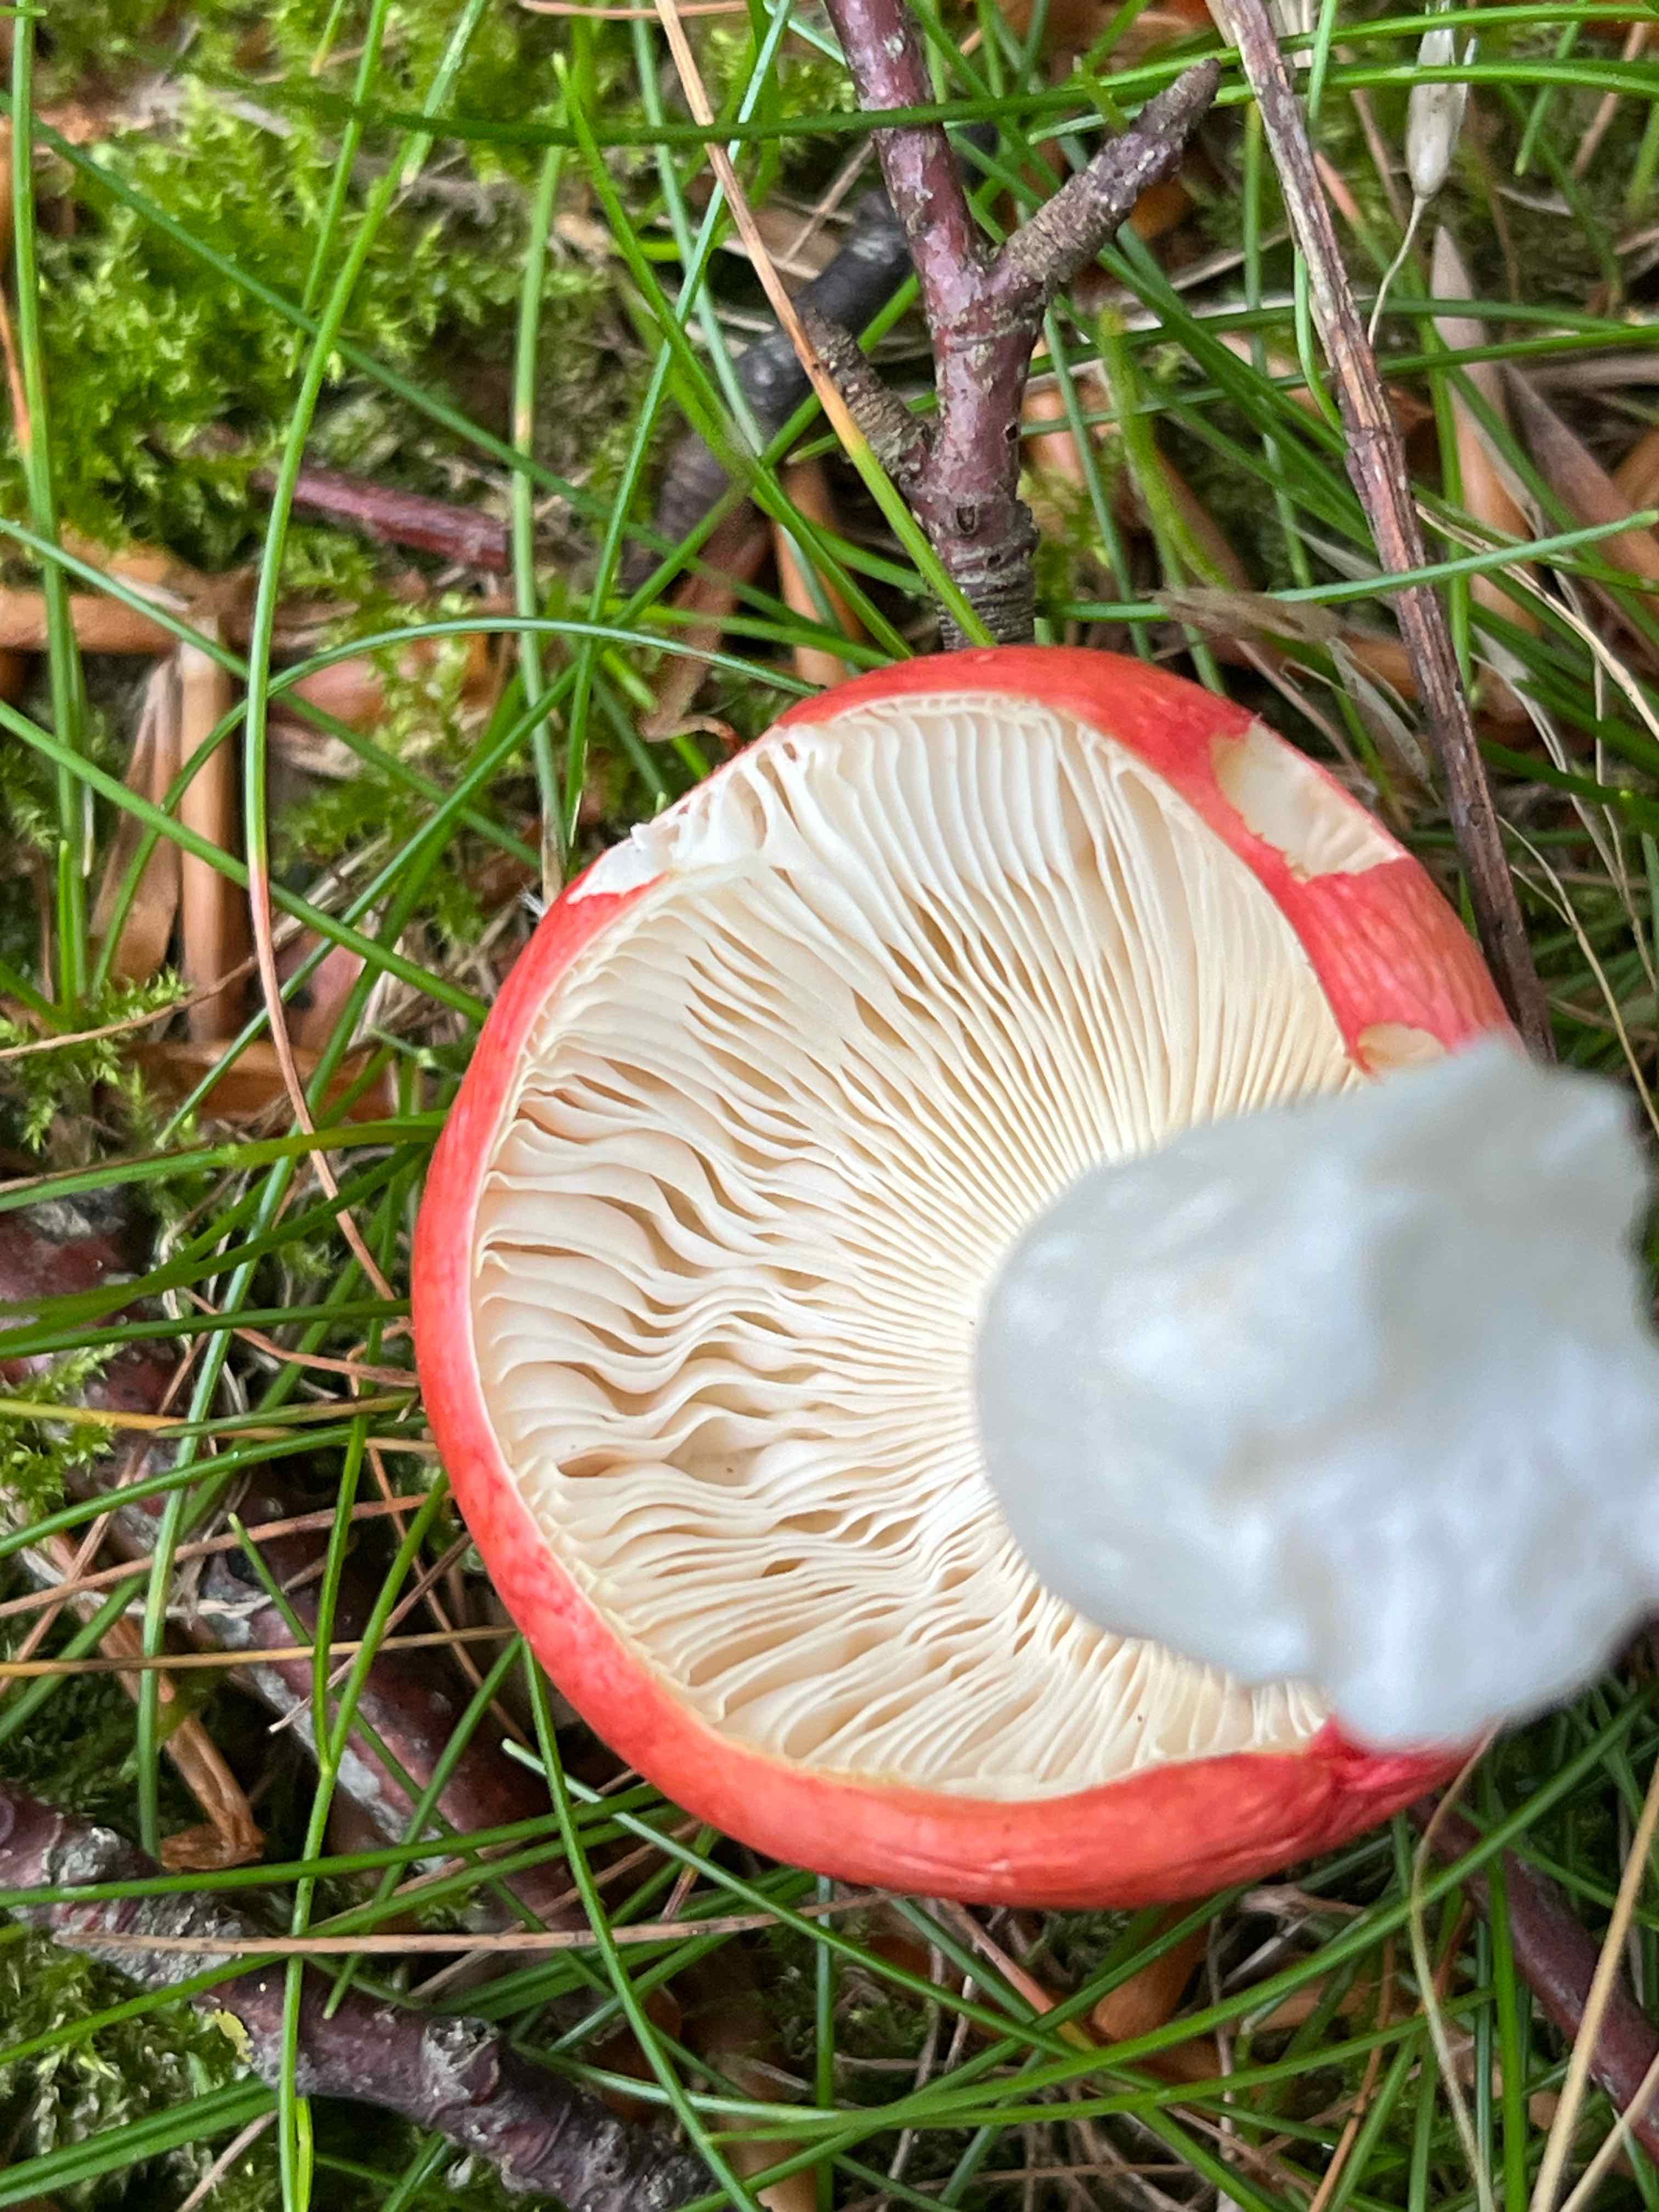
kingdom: Fungi
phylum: Basidiomycota
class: Agaricomycetes
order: Russulales
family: Russulaceae
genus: Russula
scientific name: Russula
